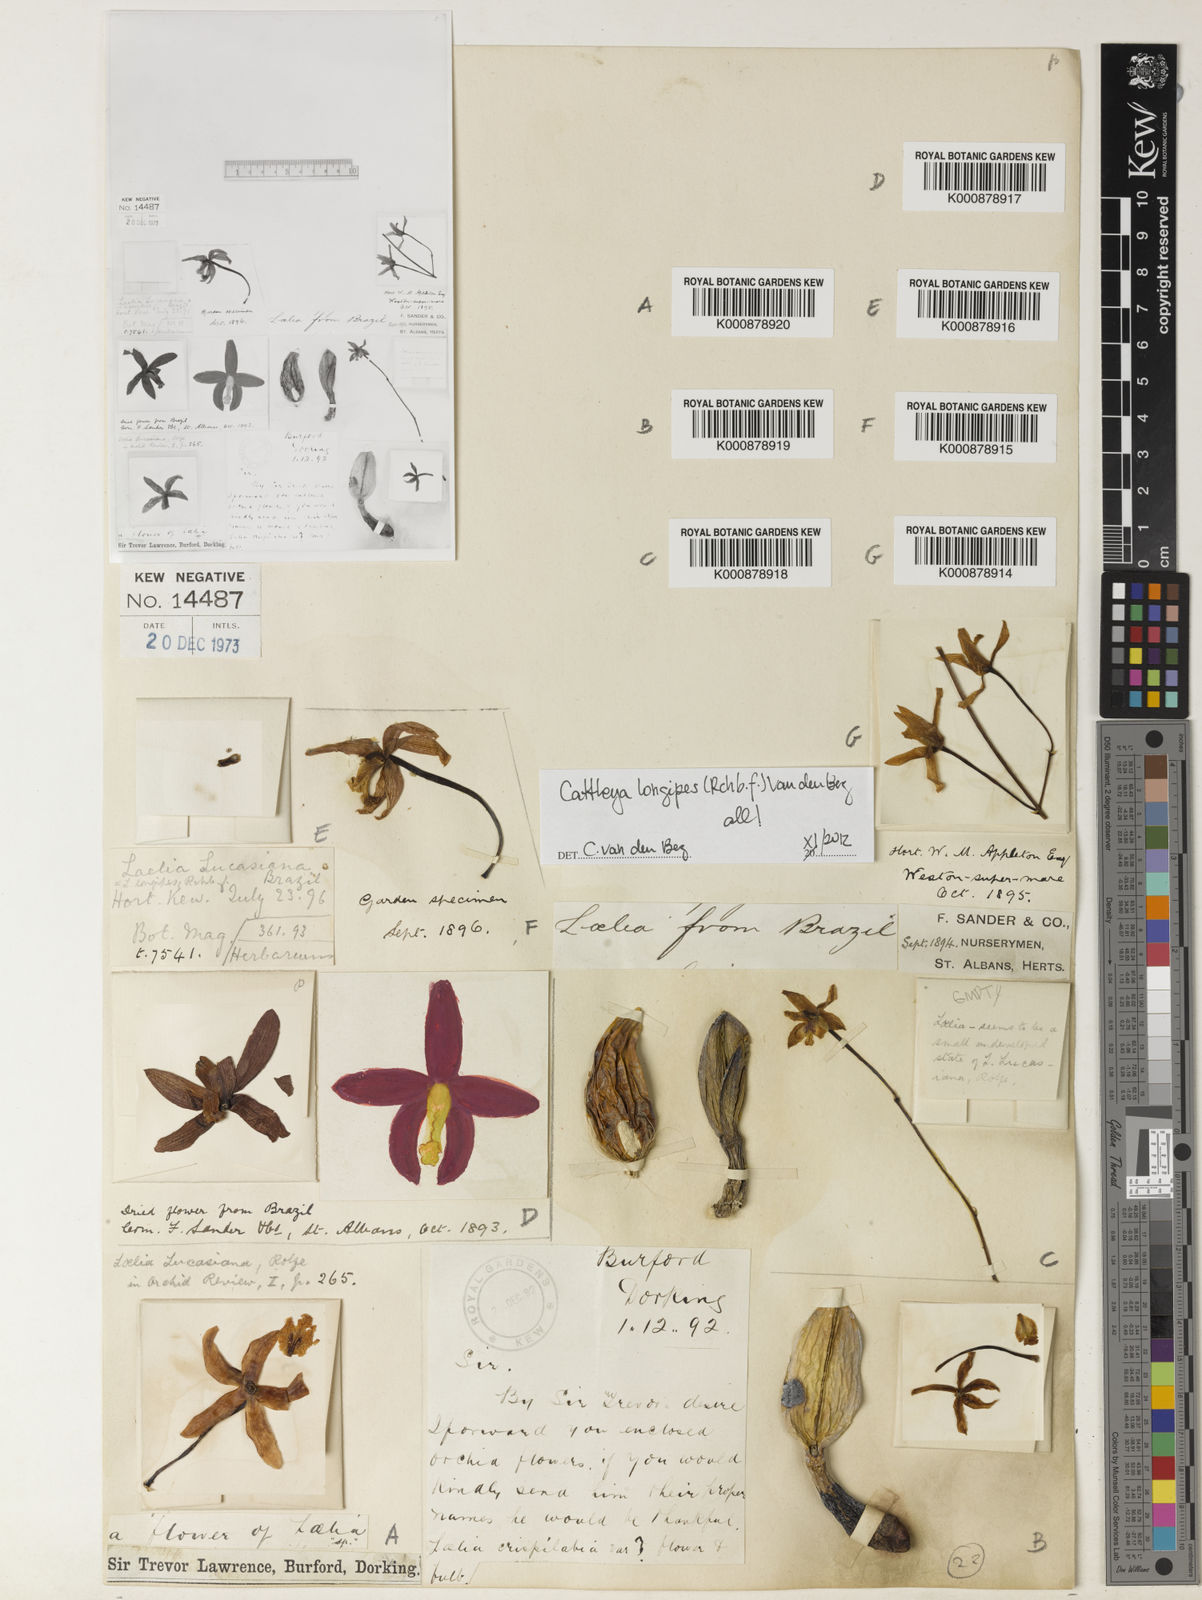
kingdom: Plantae
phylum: Tracheophyta
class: Liliopsida
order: Asparagales
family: Orchidaceae
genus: Cattleya
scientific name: Cattleya longipes
